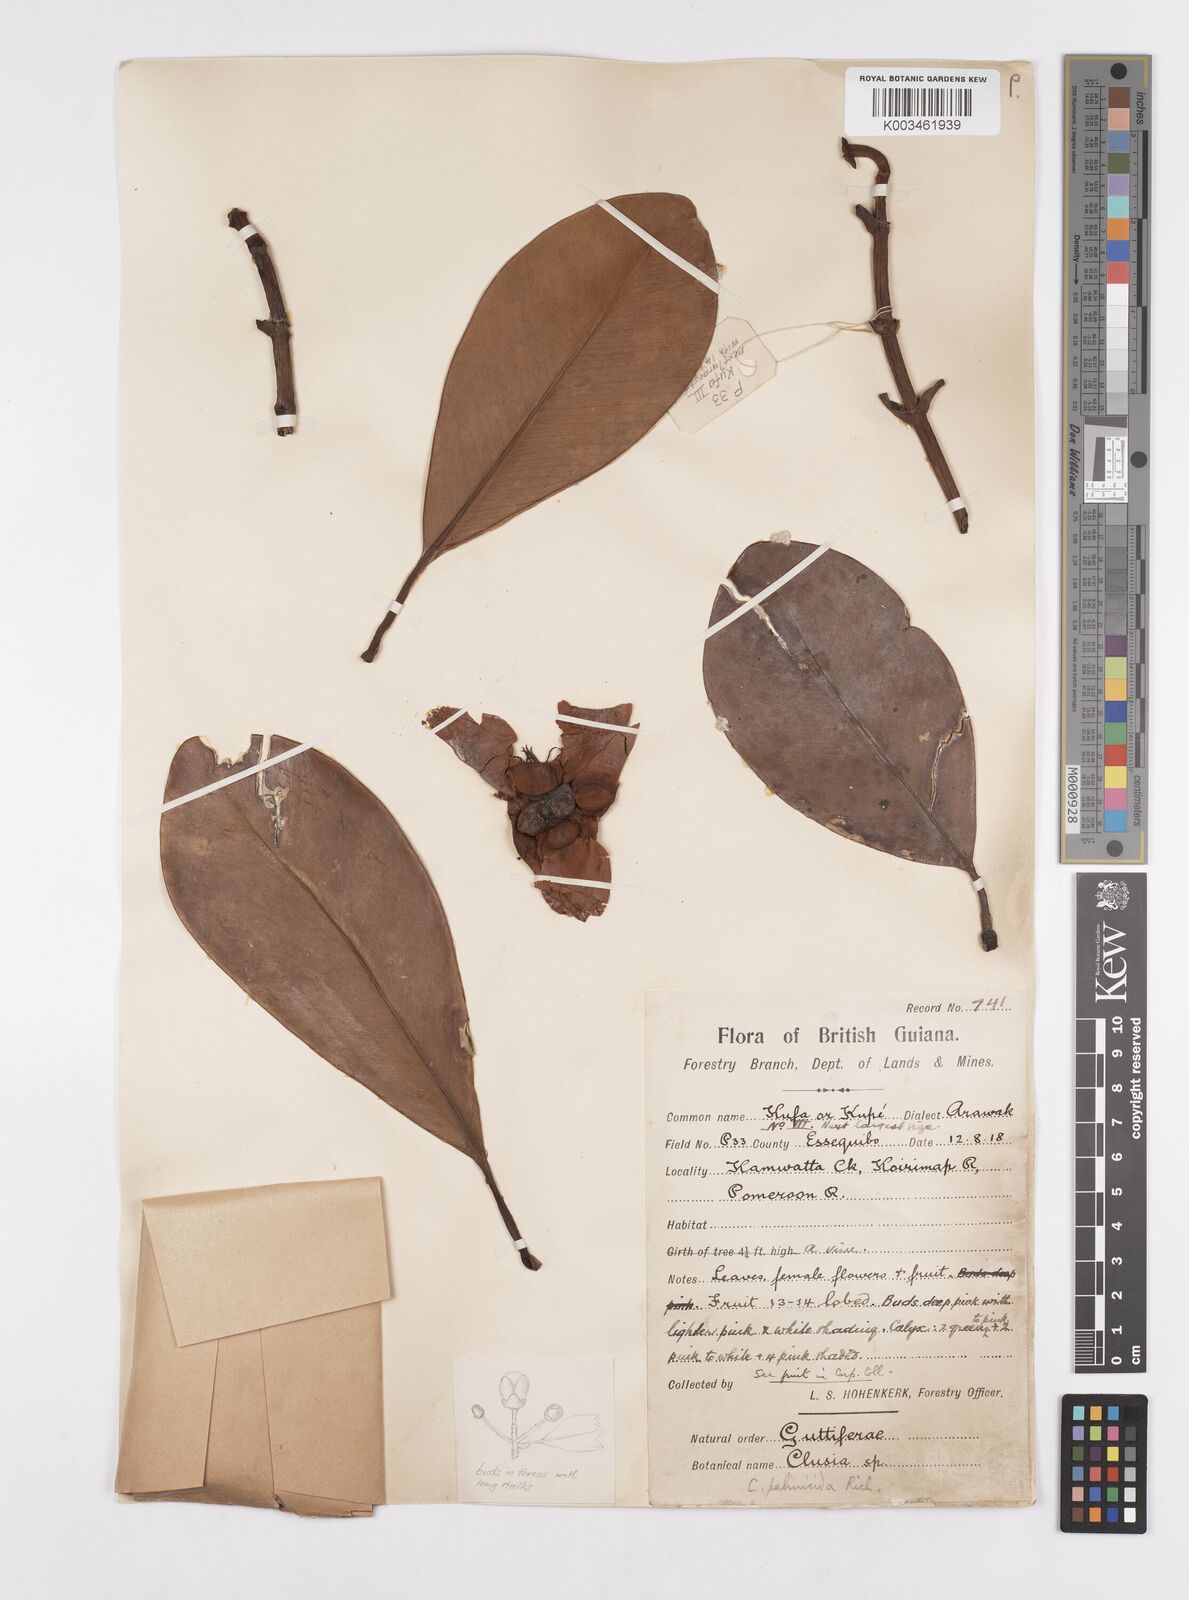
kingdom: Plantae
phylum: Tracheophyta
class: Magnoliopsida
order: Malpighiales
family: Clusiaceae
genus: Clusia
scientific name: Clusia palmicida
